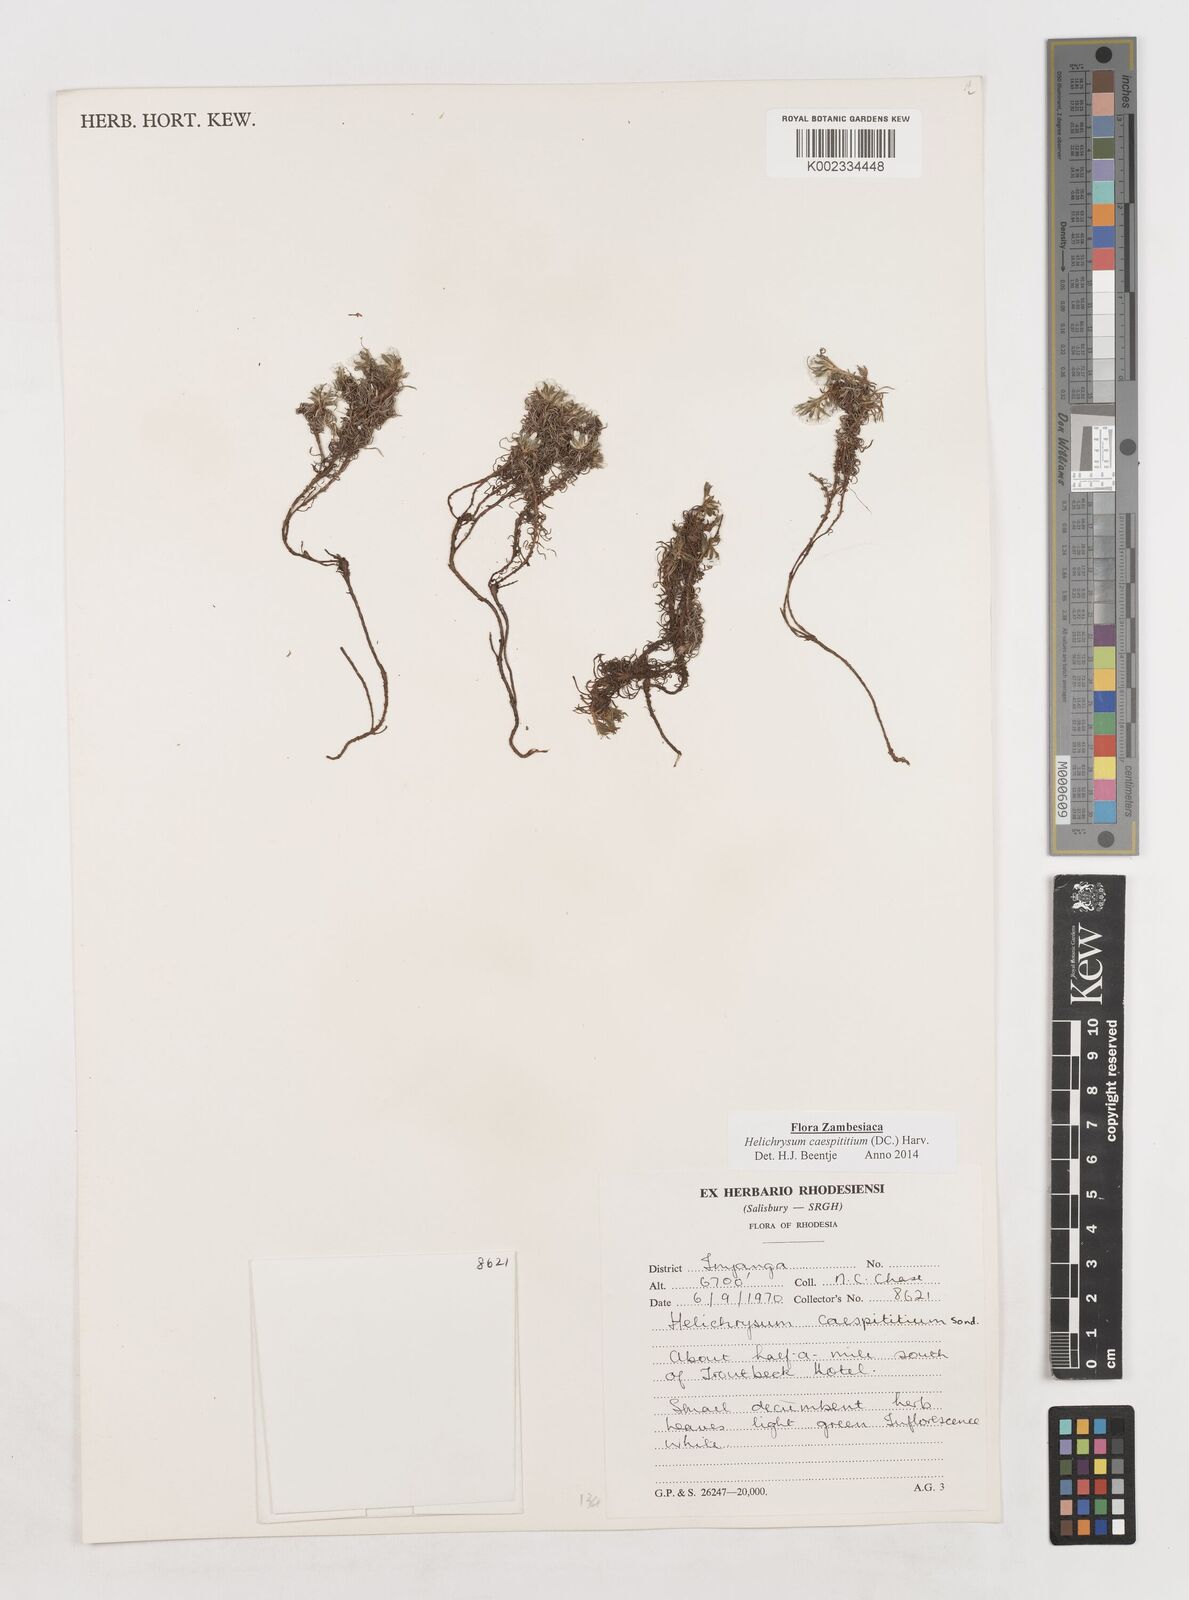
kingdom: Plantae
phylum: Tracheophyta
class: Magnoliopsida
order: Asterales
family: Asteraceae
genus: Helichrysum
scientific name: Helichrysum caespititium
